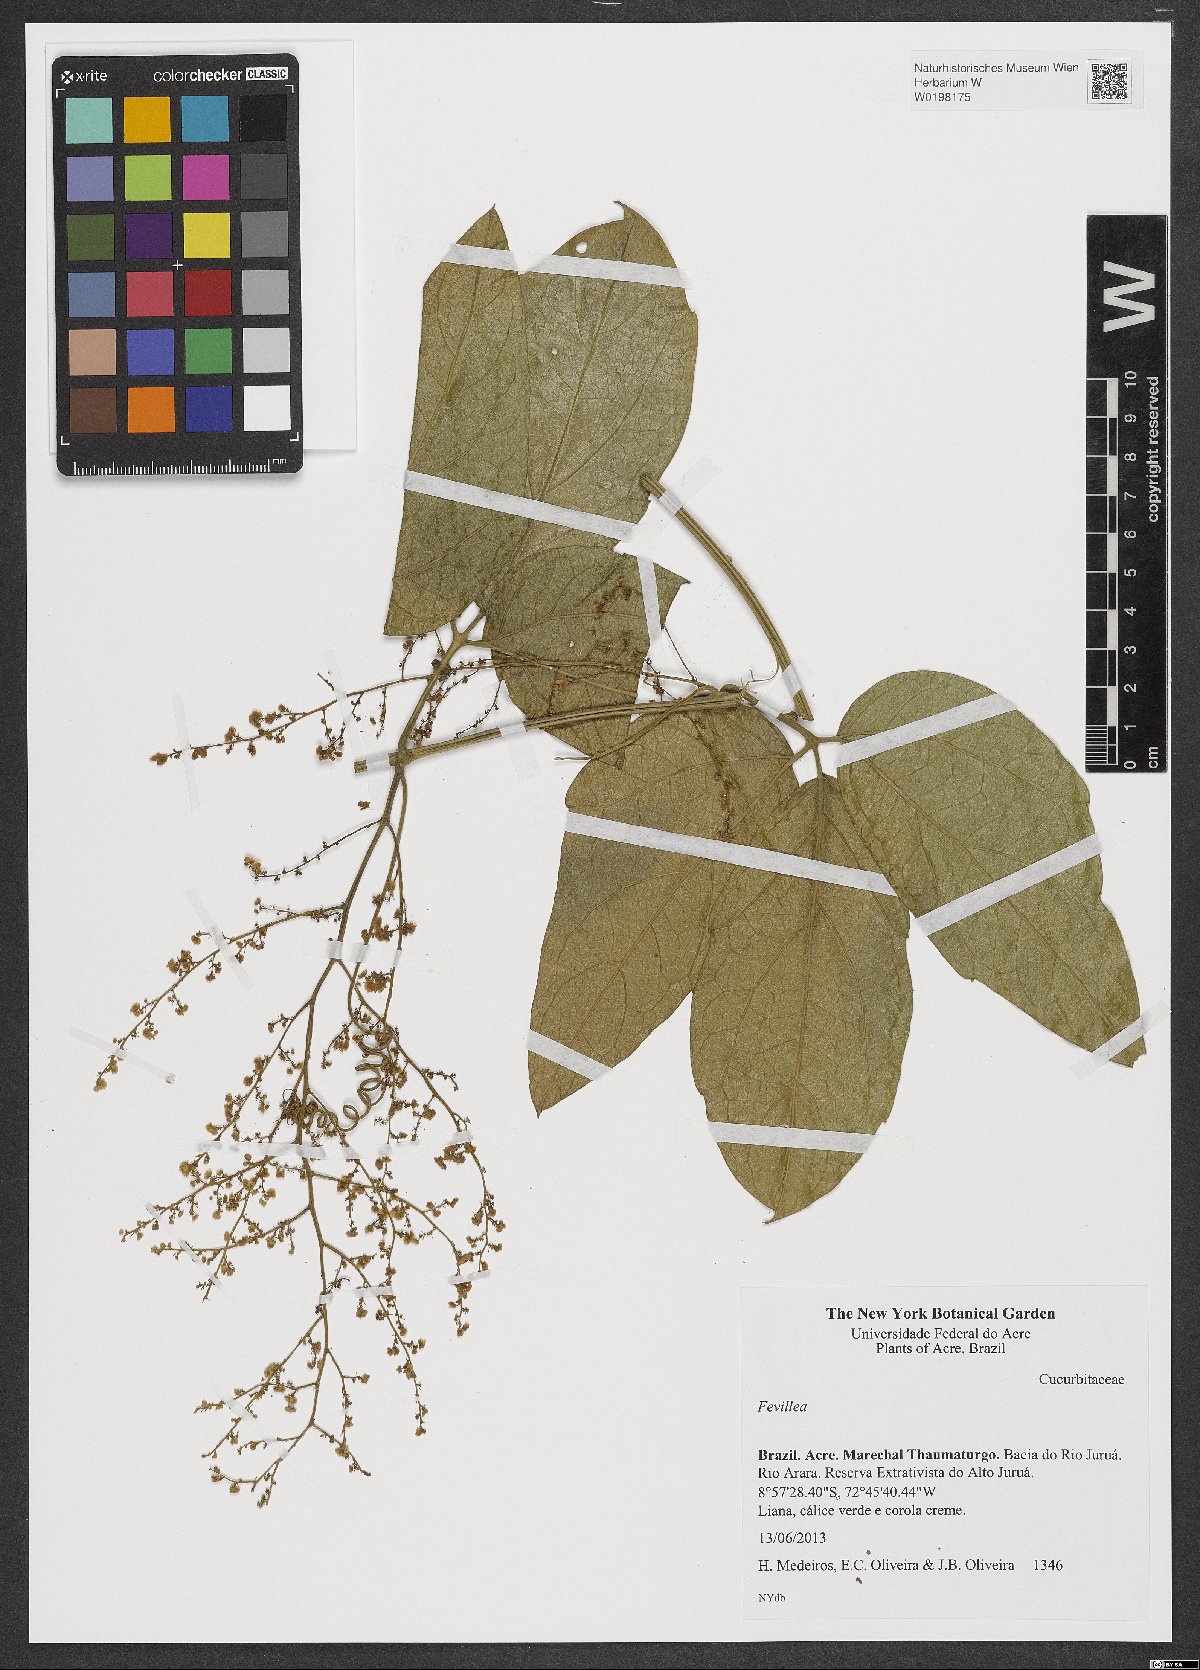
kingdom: Plantae
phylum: Tracheophyta
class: Magnoliopsida
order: Cucurbitales
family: Cucurbitaceae
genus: Fevillea
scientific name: Fevillea
